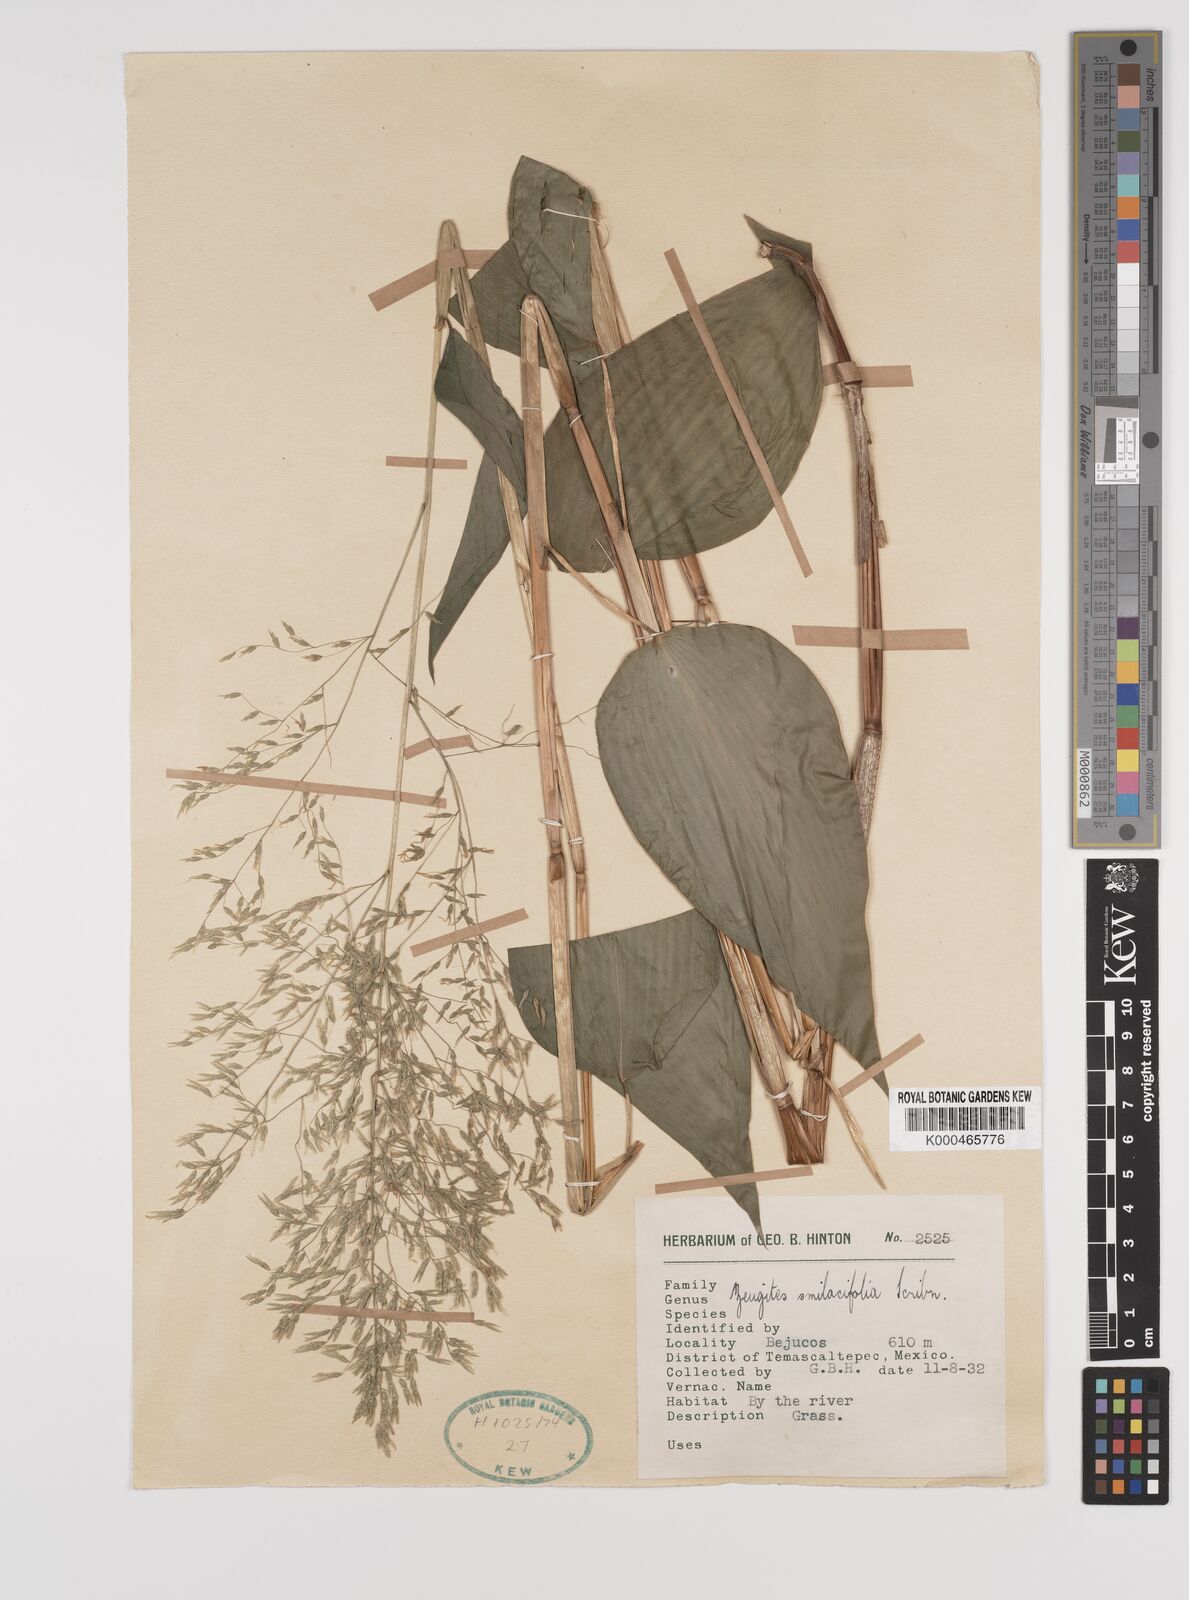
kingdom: Plantae
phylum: Tracheophyta
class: Liliopsida
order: Poales
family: Poaceae
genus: Zeugites
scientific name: Zeugites smilacifolius
